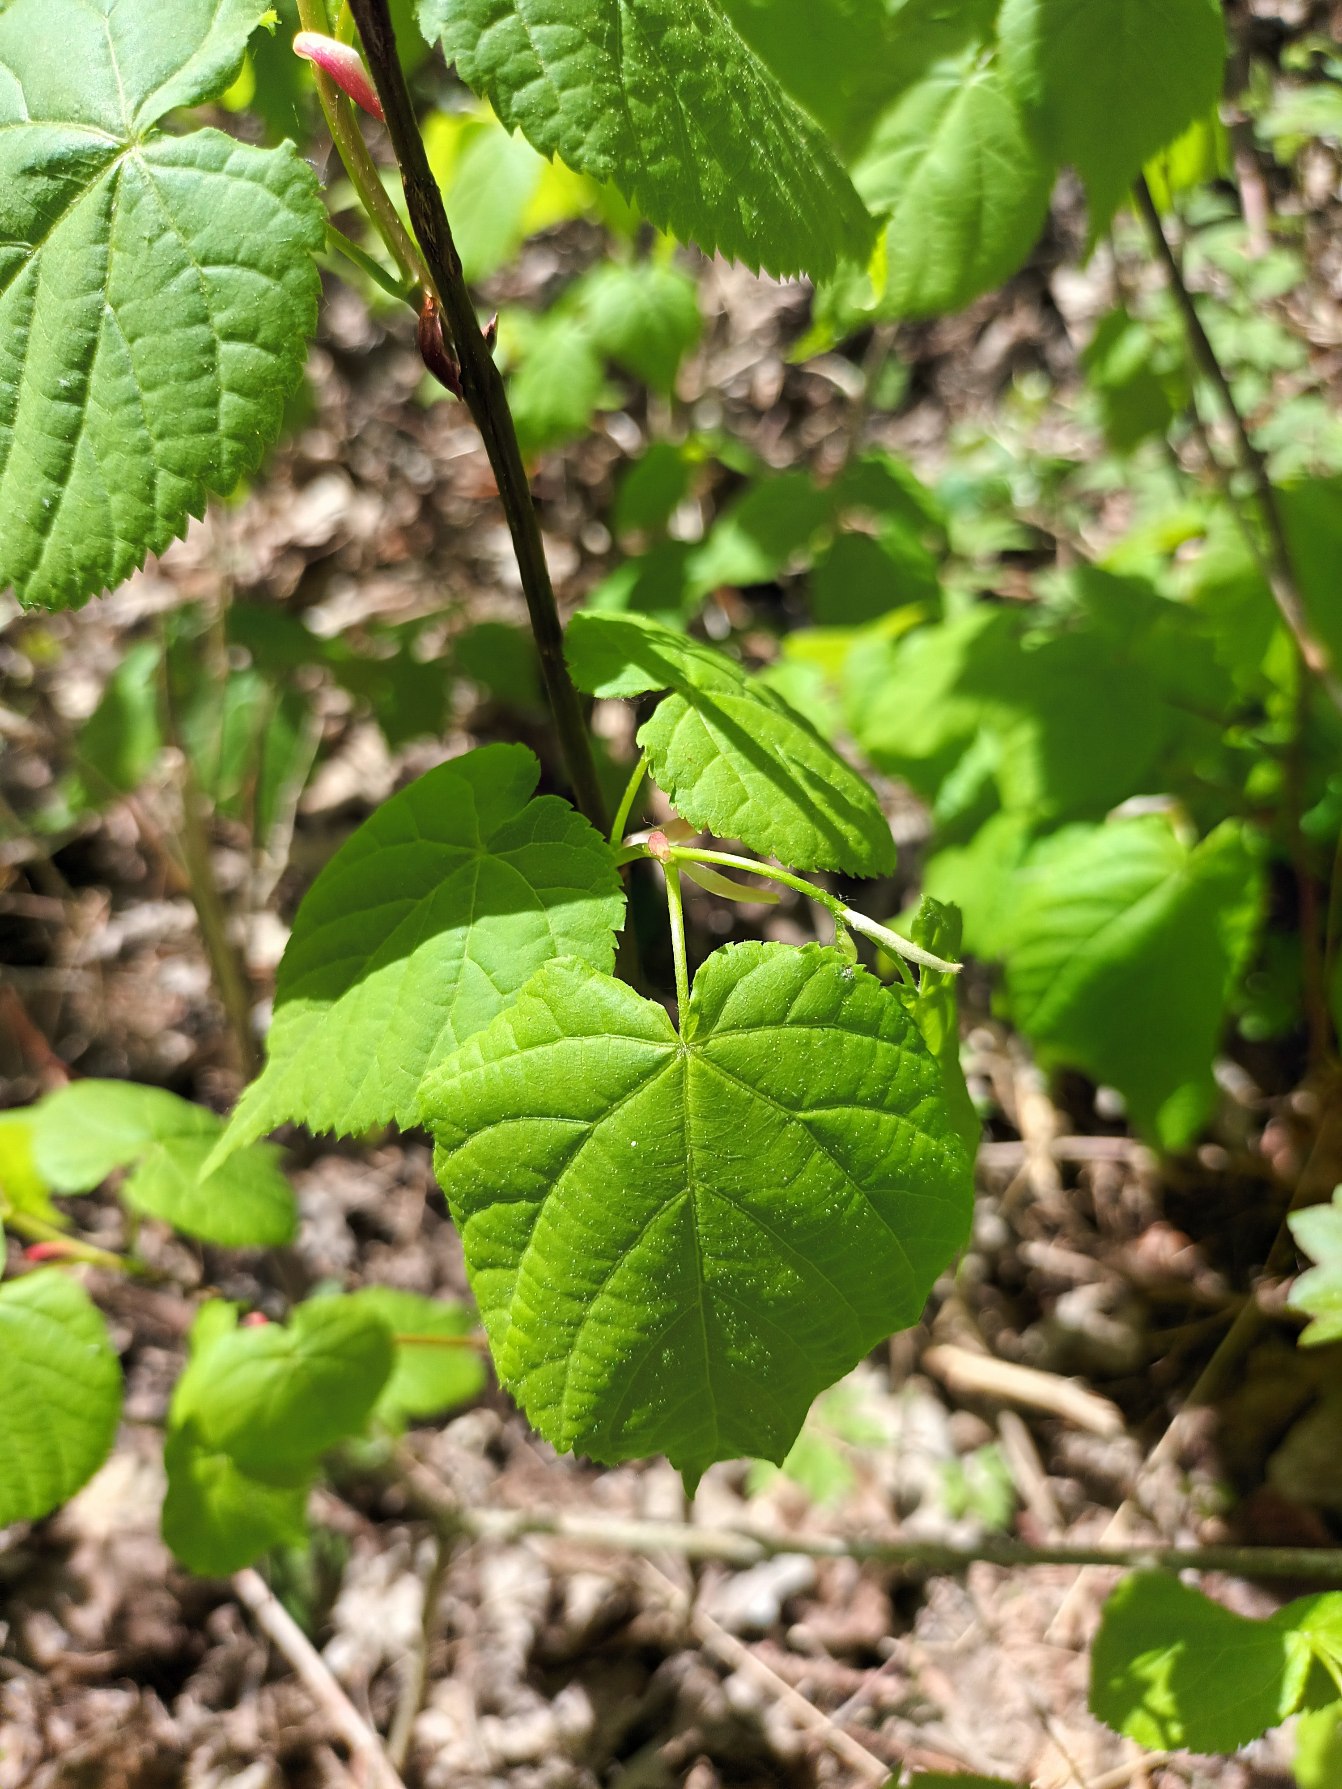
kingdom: Plantae
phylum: Tracheophyta
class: Magnoliopsida
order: Malvales
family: Malvaceae
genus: Tilia
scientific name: Tilia europaea
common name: Park-lind
